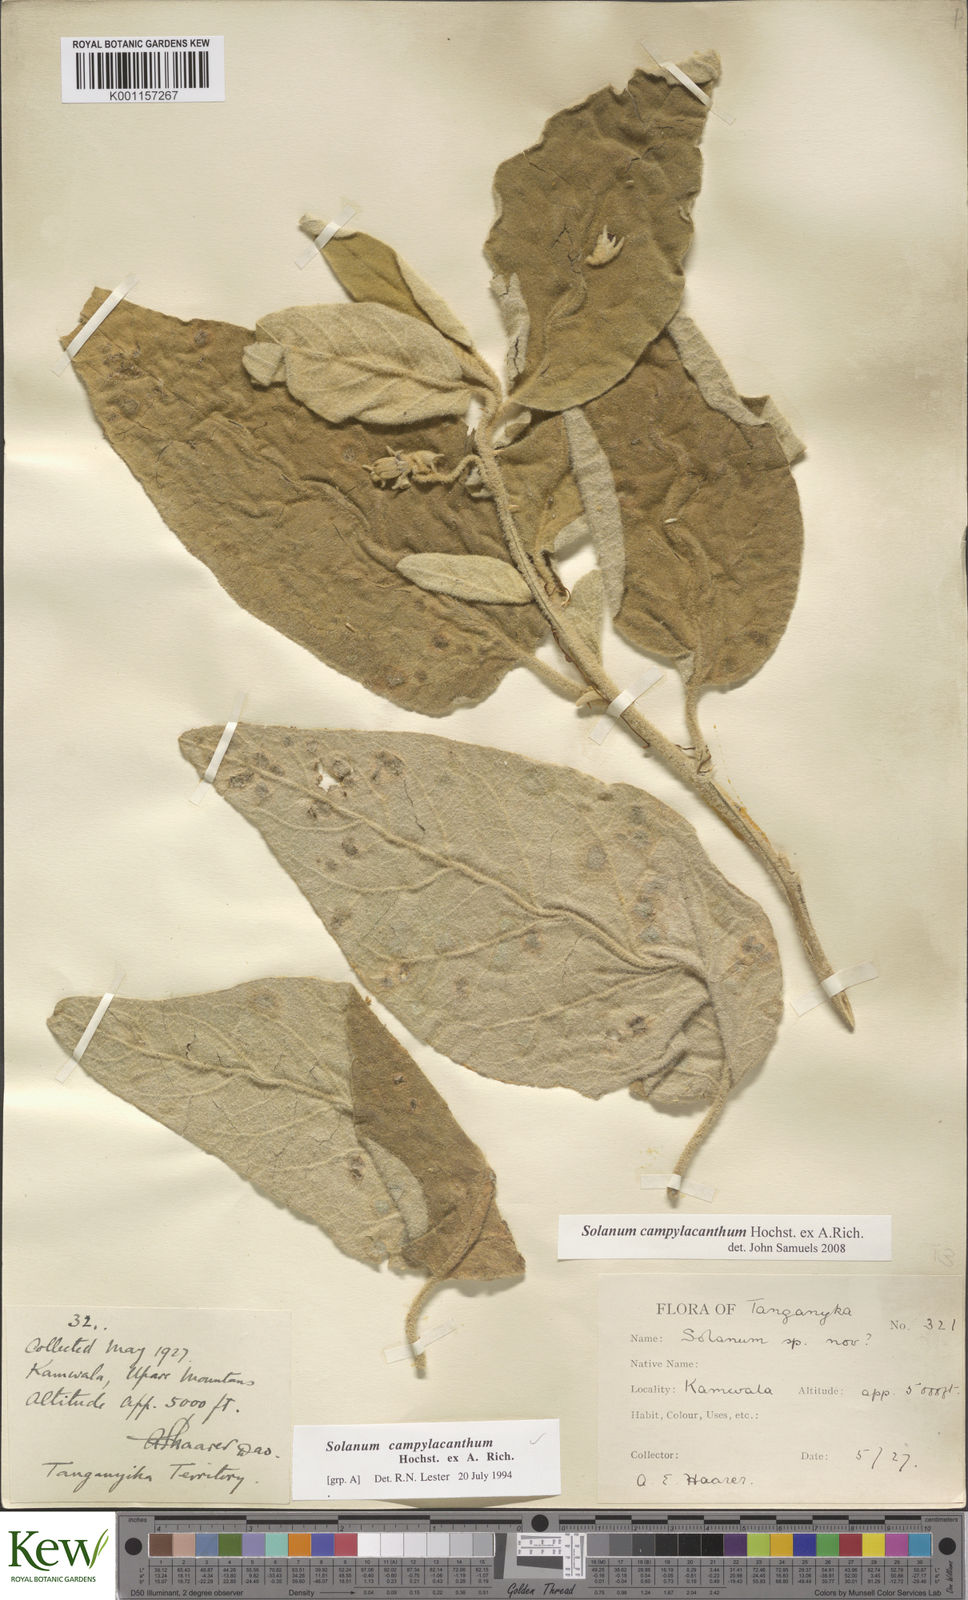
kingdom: Plantae
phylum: Tracheophyta
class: Magnoliopsida
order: Solanales
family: Solanaceae
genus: Solanum
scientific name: Solanum campylacanthum
